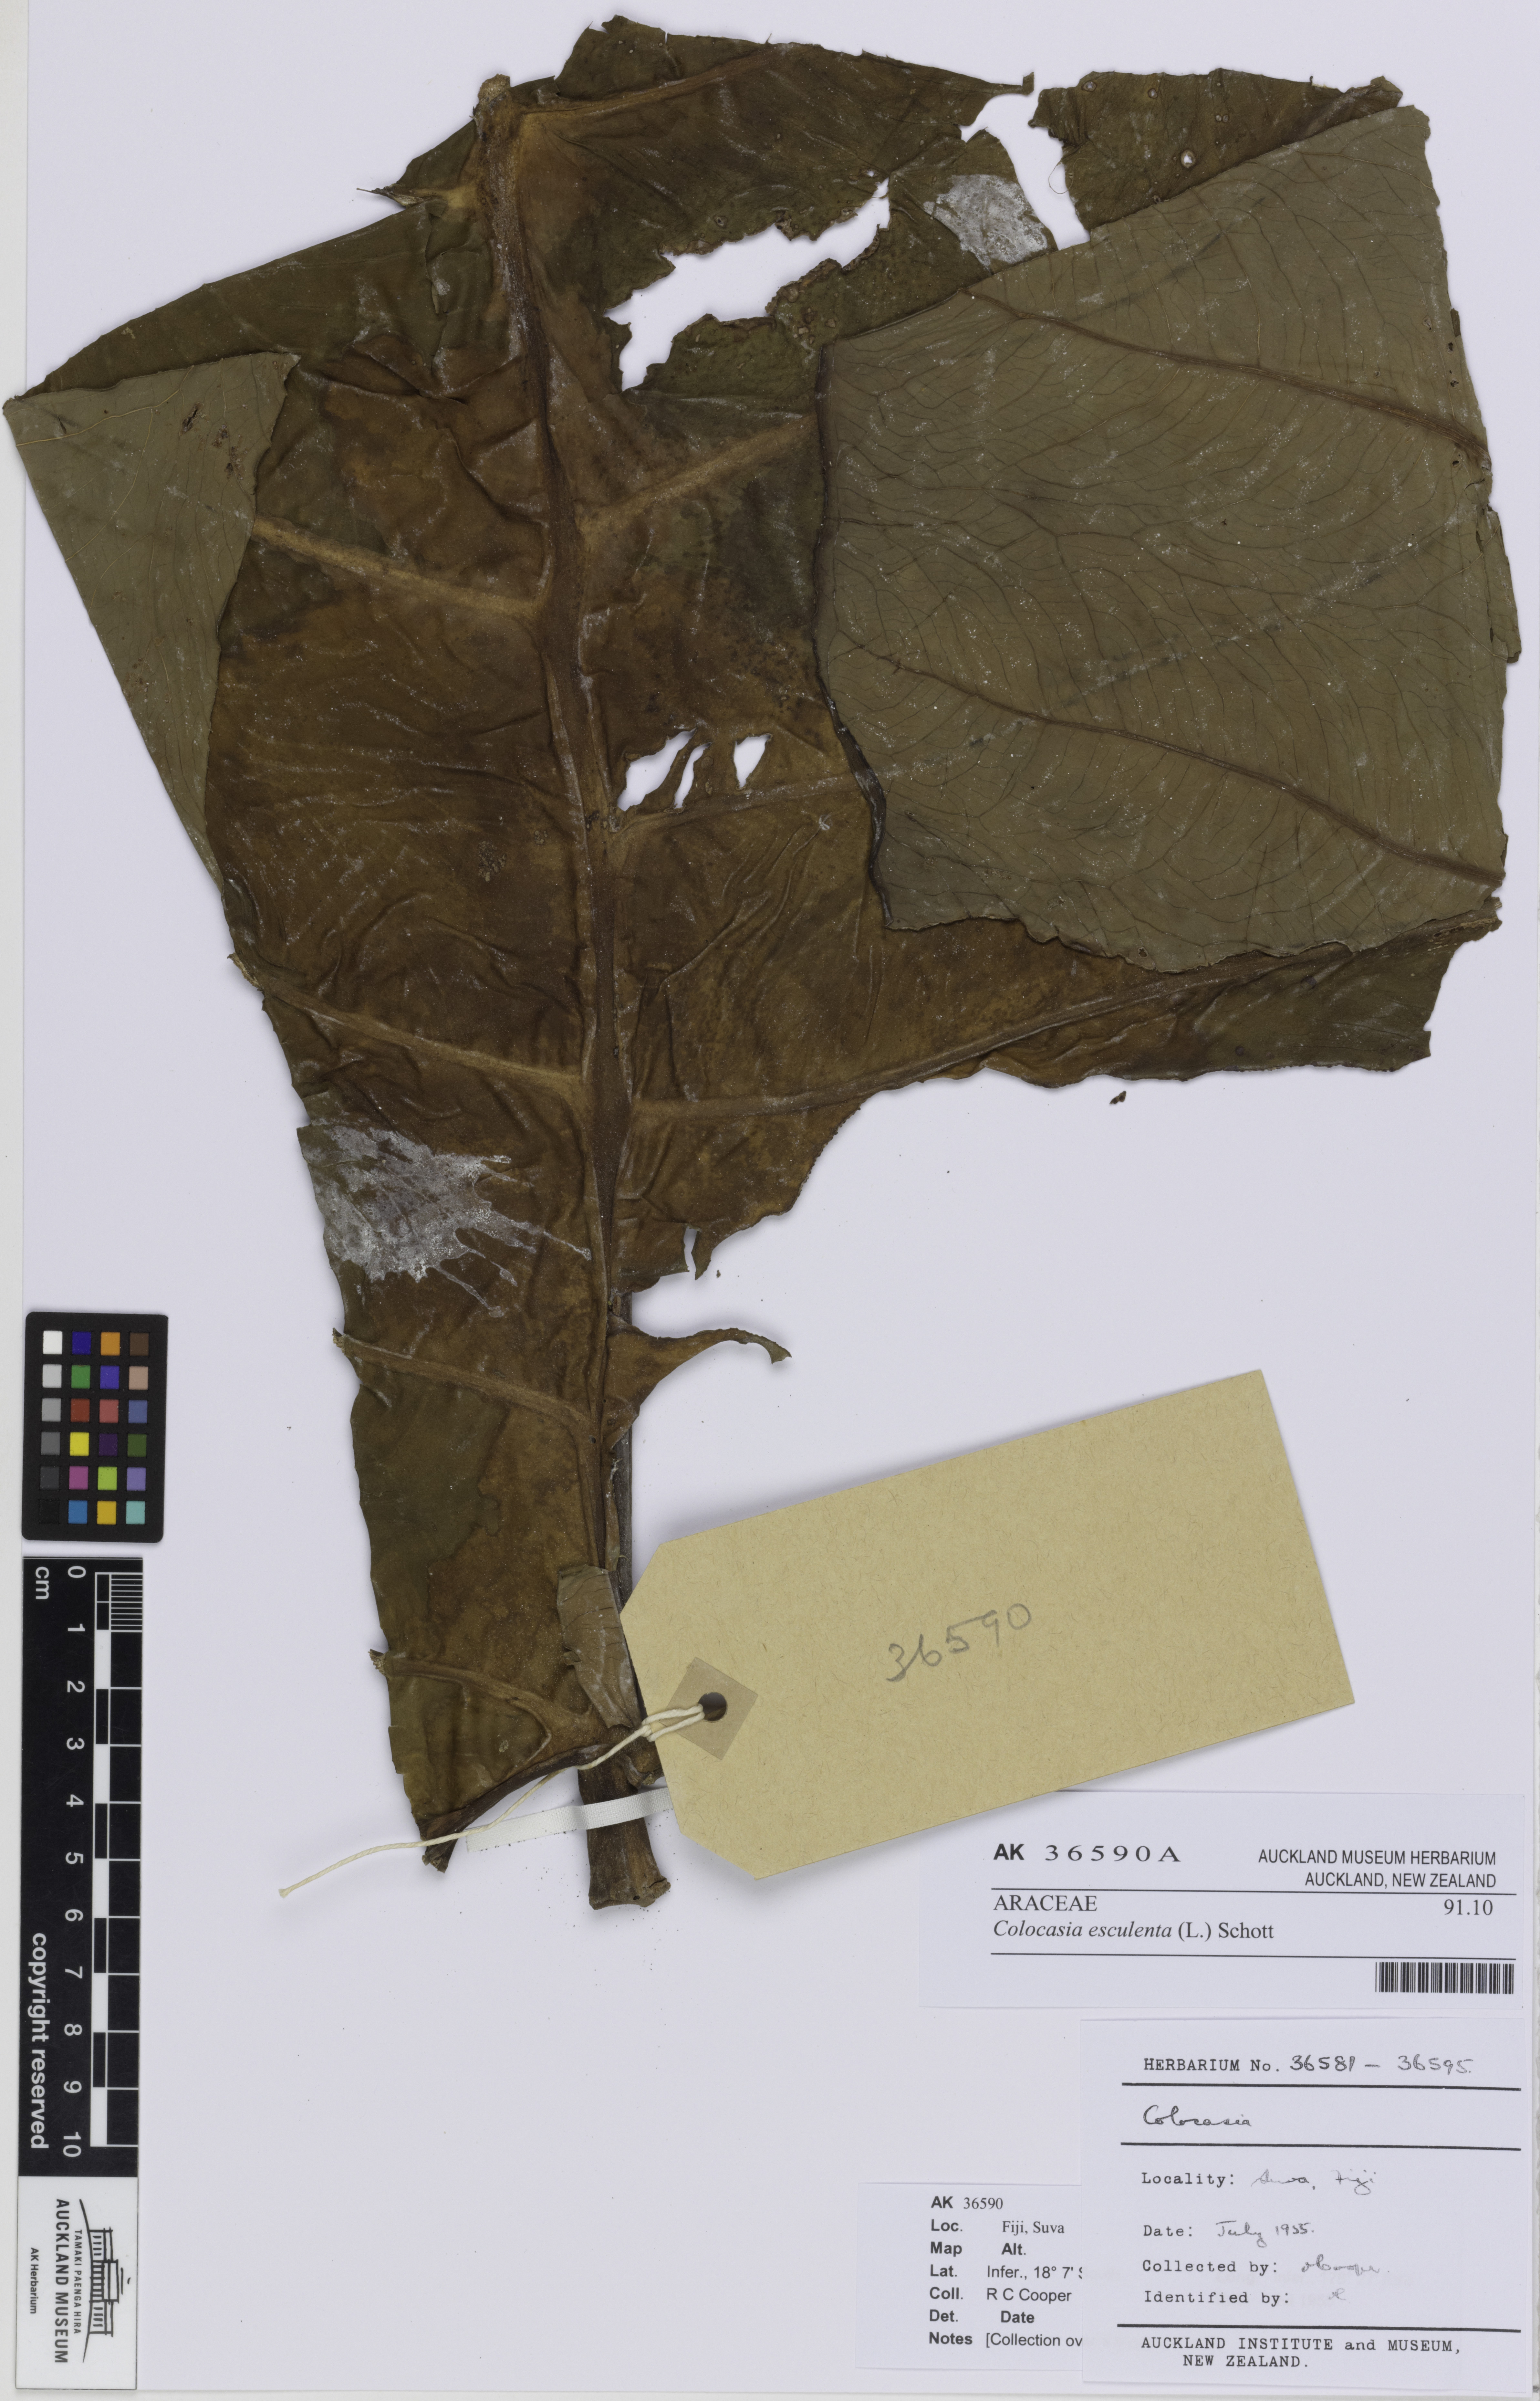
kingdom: Plantae
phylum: Tracheophyta
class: Liliopsida
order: Alismatales
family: Araceae
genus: Colocasia
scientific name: Colocasia esculenta
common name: Taro
